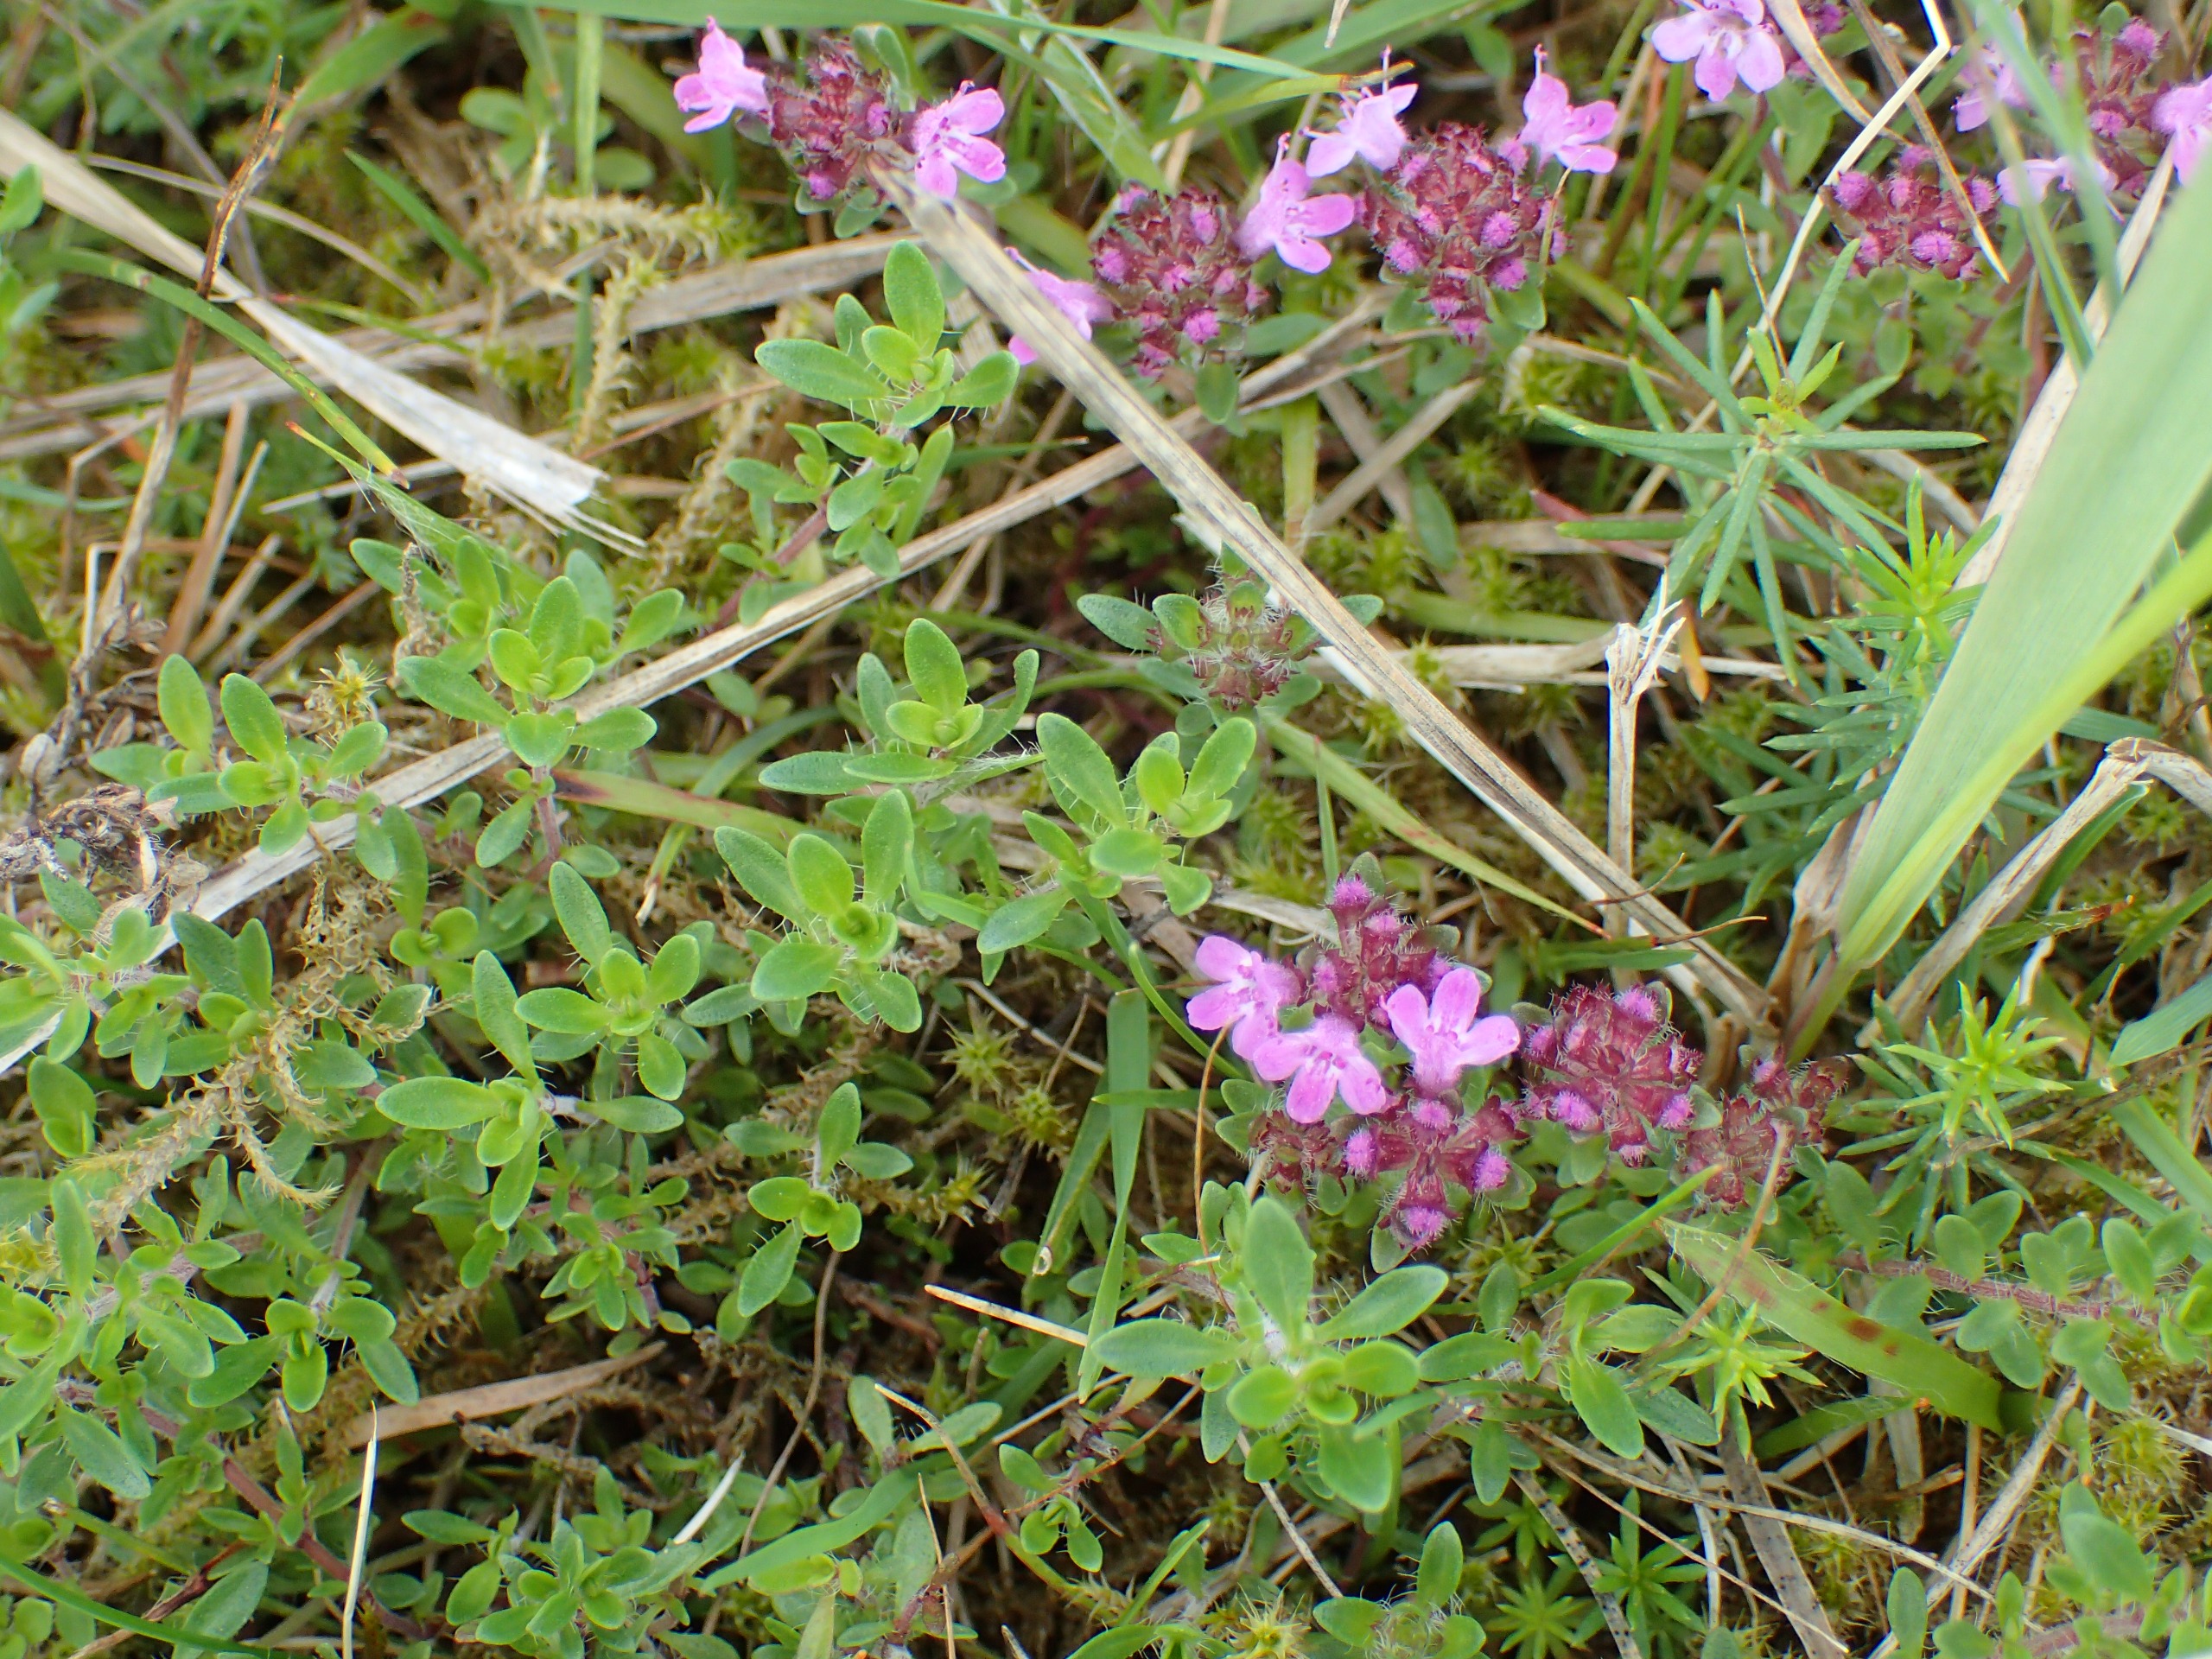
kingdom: Plantae
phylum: Tracheophyta
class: Magnoliopsida
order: Lamiales
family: Lamiaceae
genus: Thymus
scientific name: Thymus serpyllum
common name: Smalbladet timian
